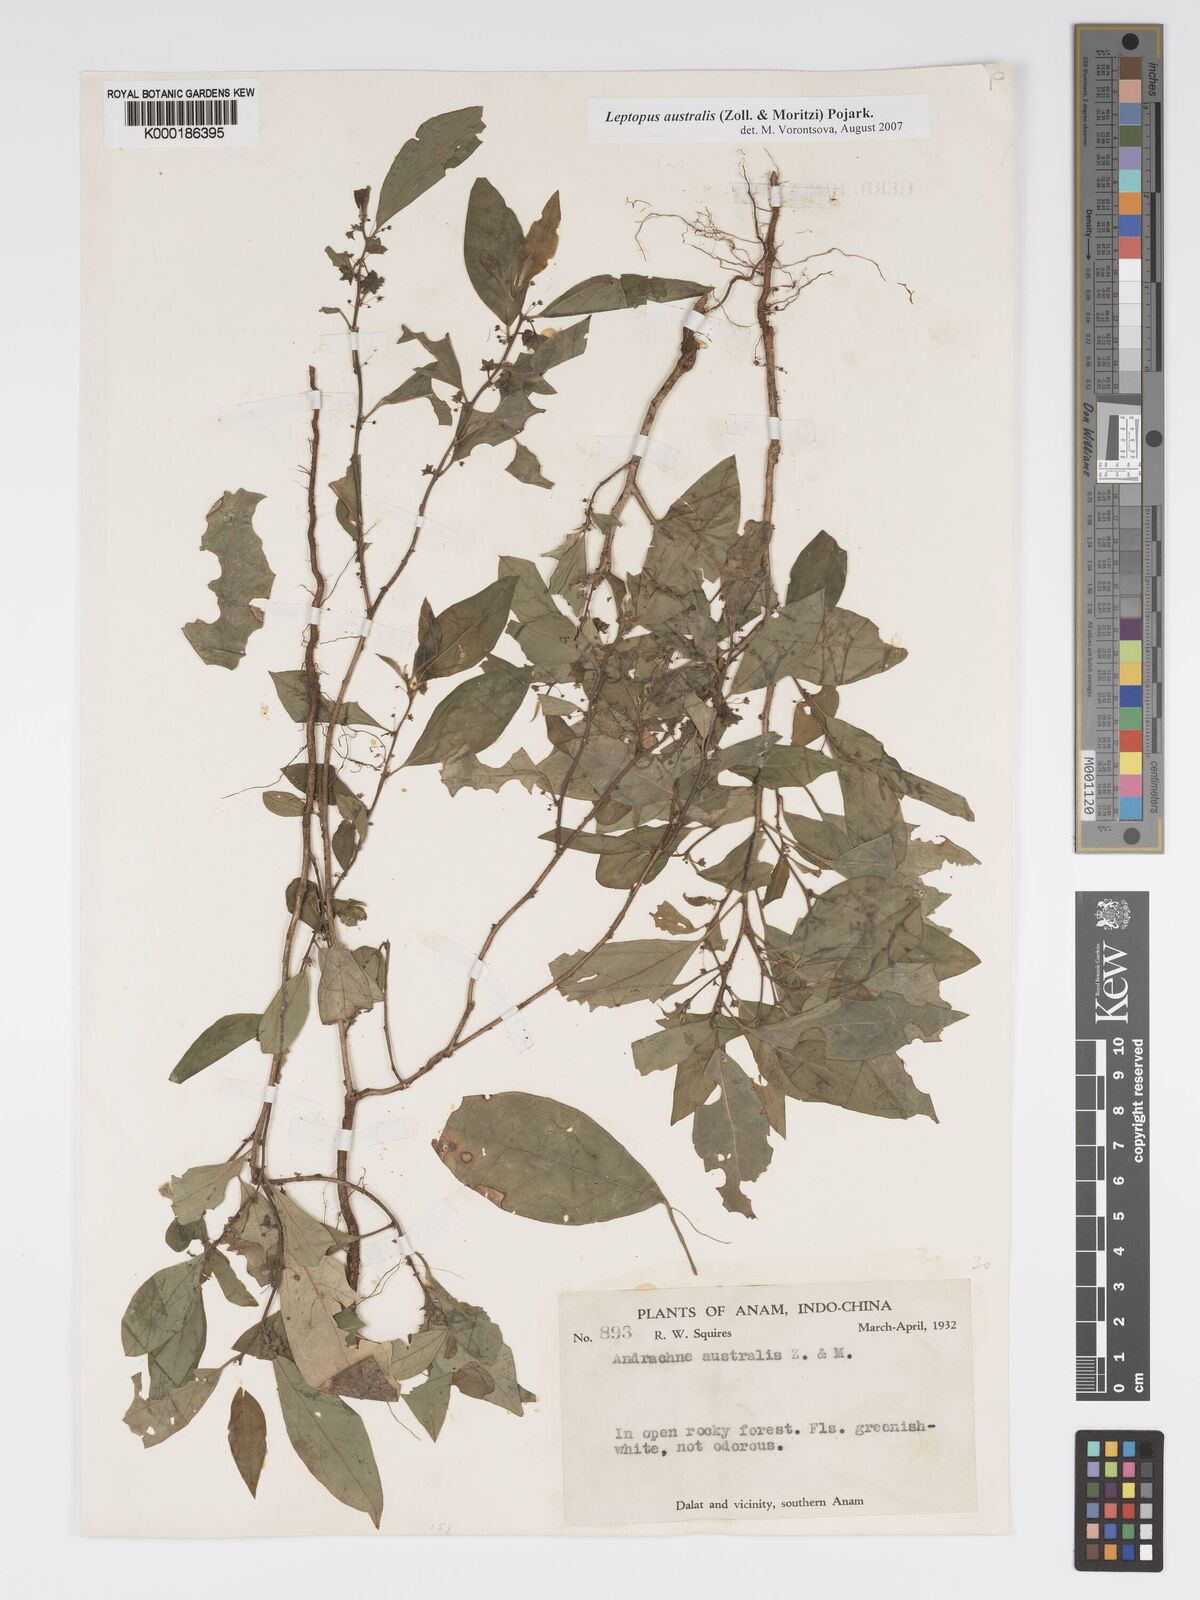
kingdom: Plantae
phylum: Tracheophyta
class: Magnoliopsida
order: Malpighiales
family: Phyllanthaceae
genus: Andrachne
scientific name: Andrachne
